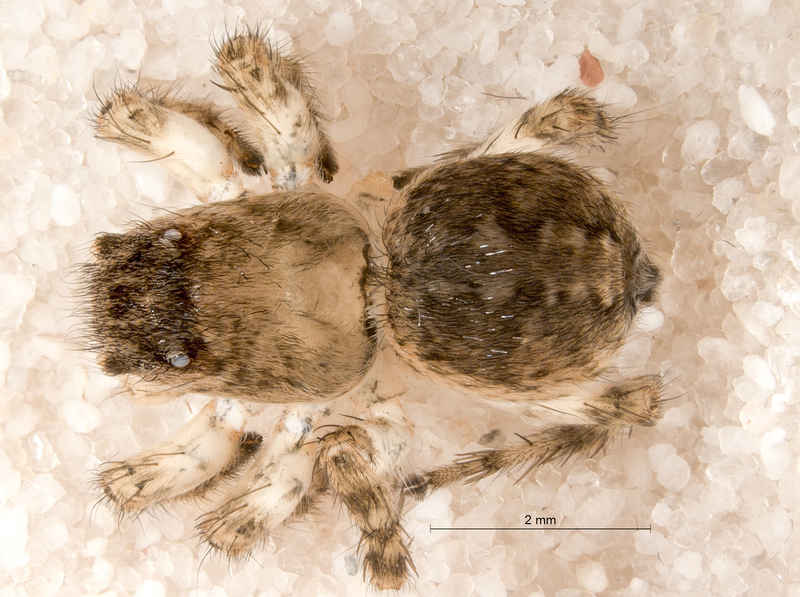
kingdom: Animalia
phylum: Arthropoda
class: Arachnida
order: Araneae
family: Salticidae
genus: Aelurillus
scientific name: Aelurillus v-insignitus
